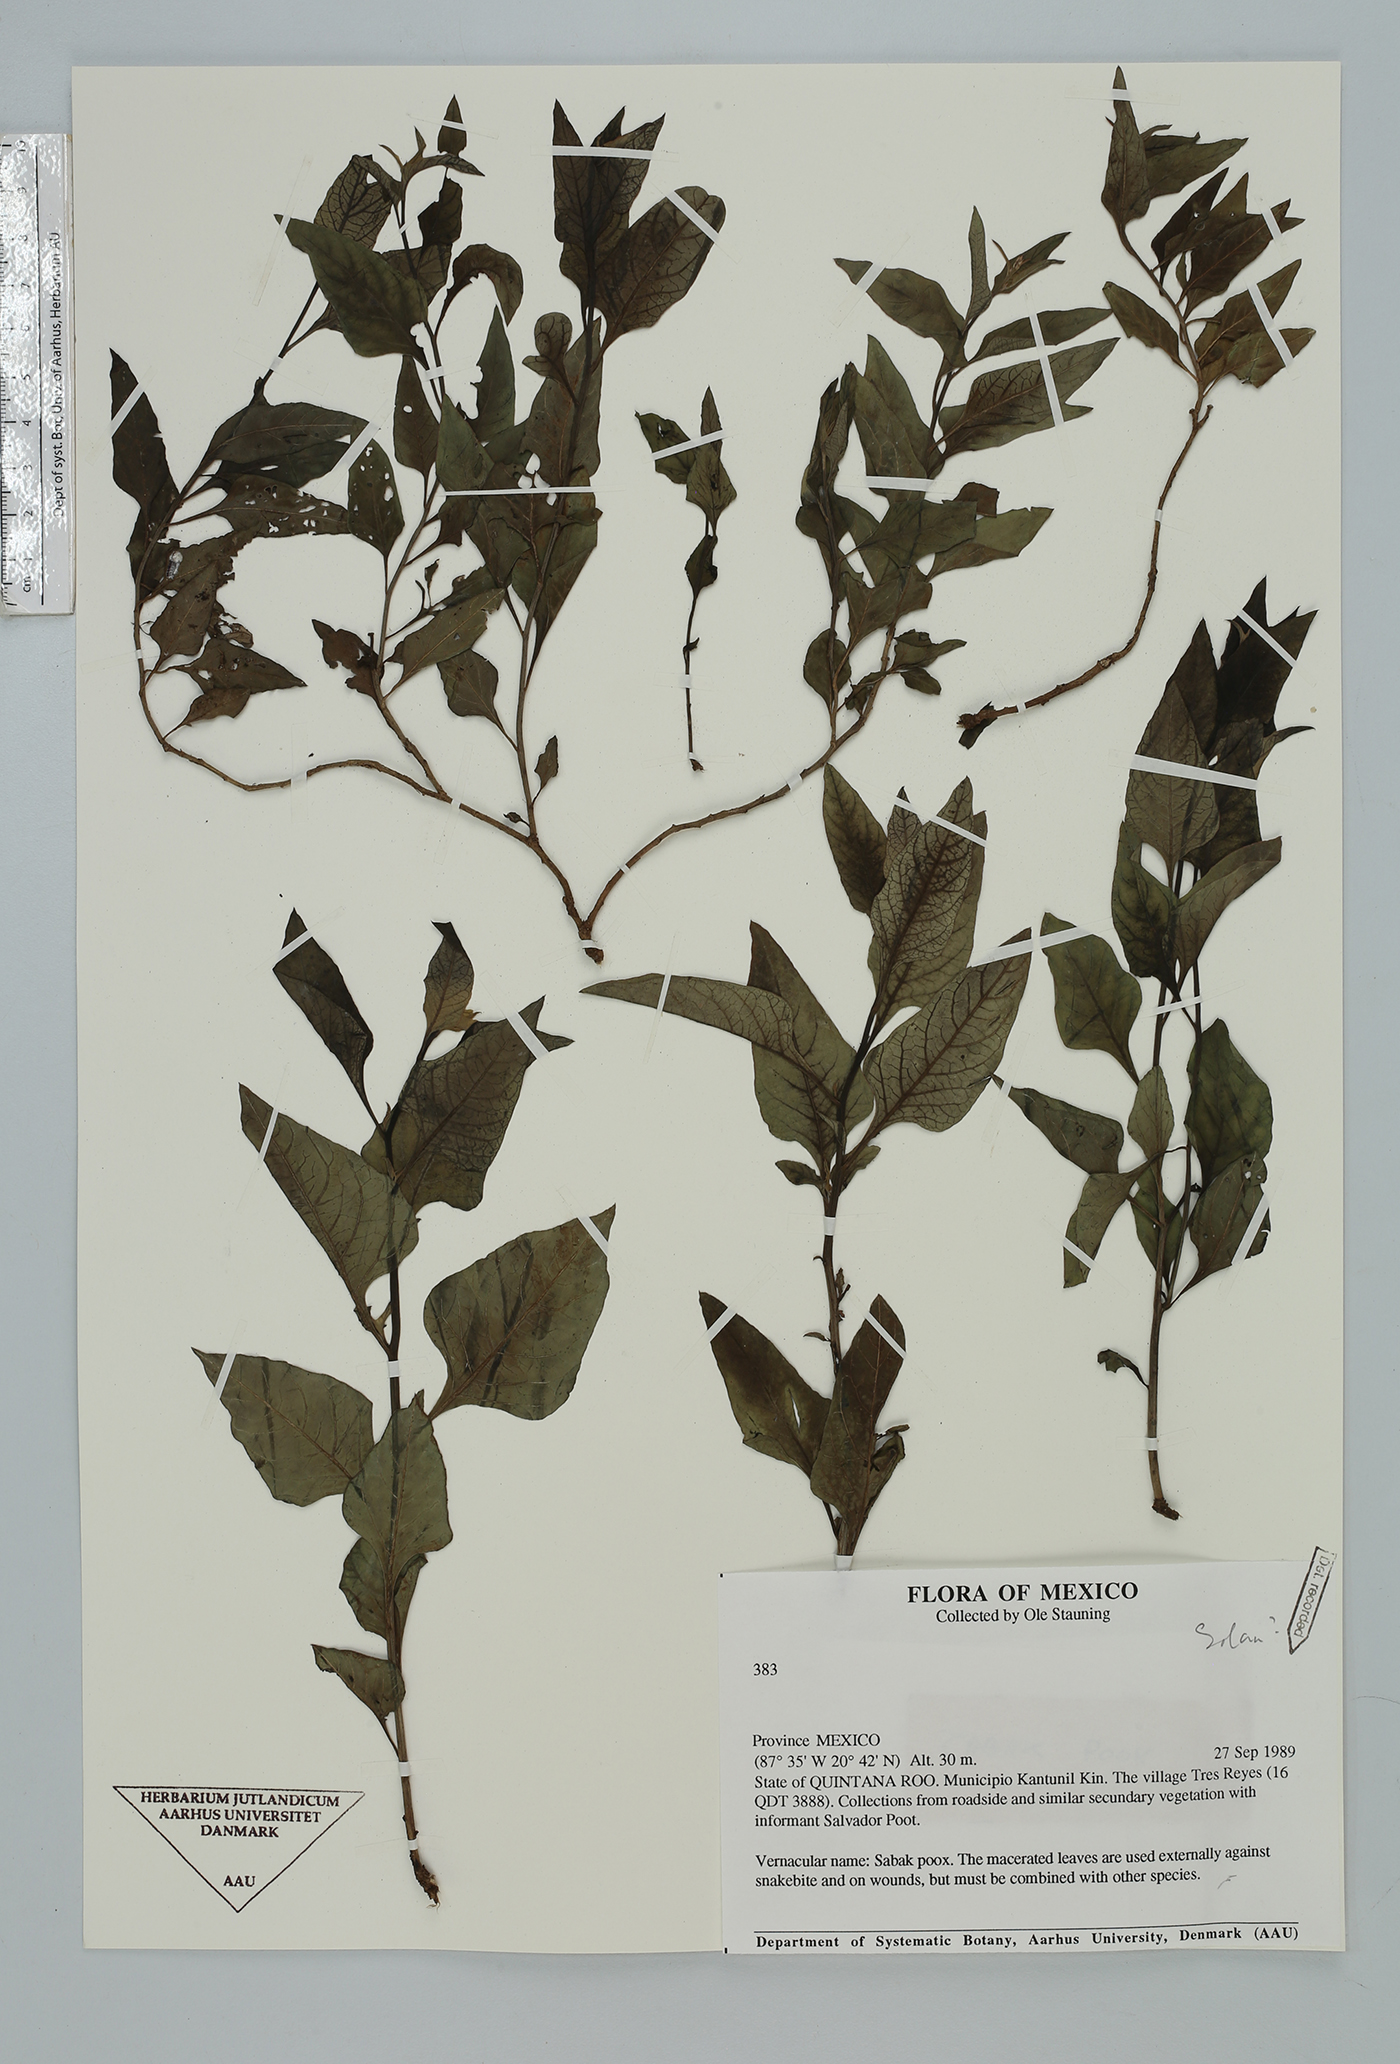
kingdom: Plantae
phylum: Tracheophyta
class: Magnoliopsida
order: Solanales
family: Solanaceae
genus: Solanum
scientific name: Solanum
